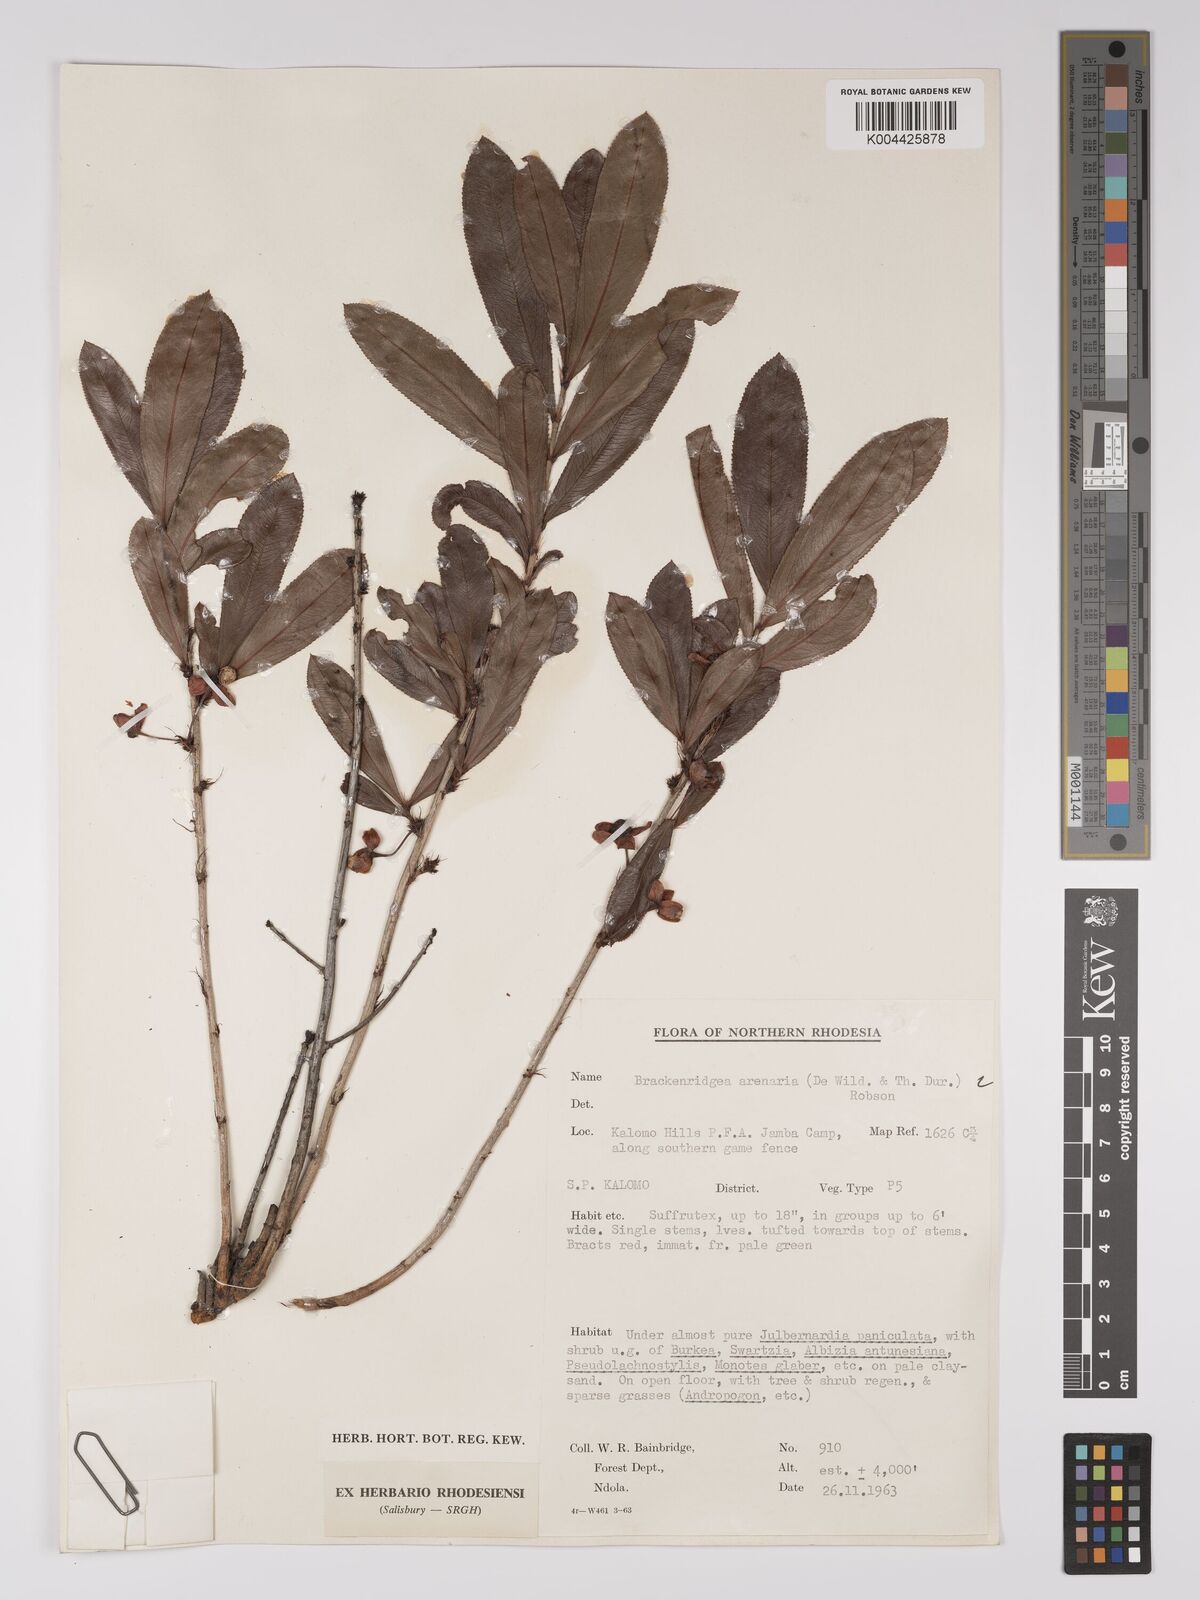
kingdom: Plantae
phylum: Tracheophyta
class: Magnoliopsida
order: Malpighiales
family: Ochnaceae
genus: Ochna
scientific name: Ochna arenaria
